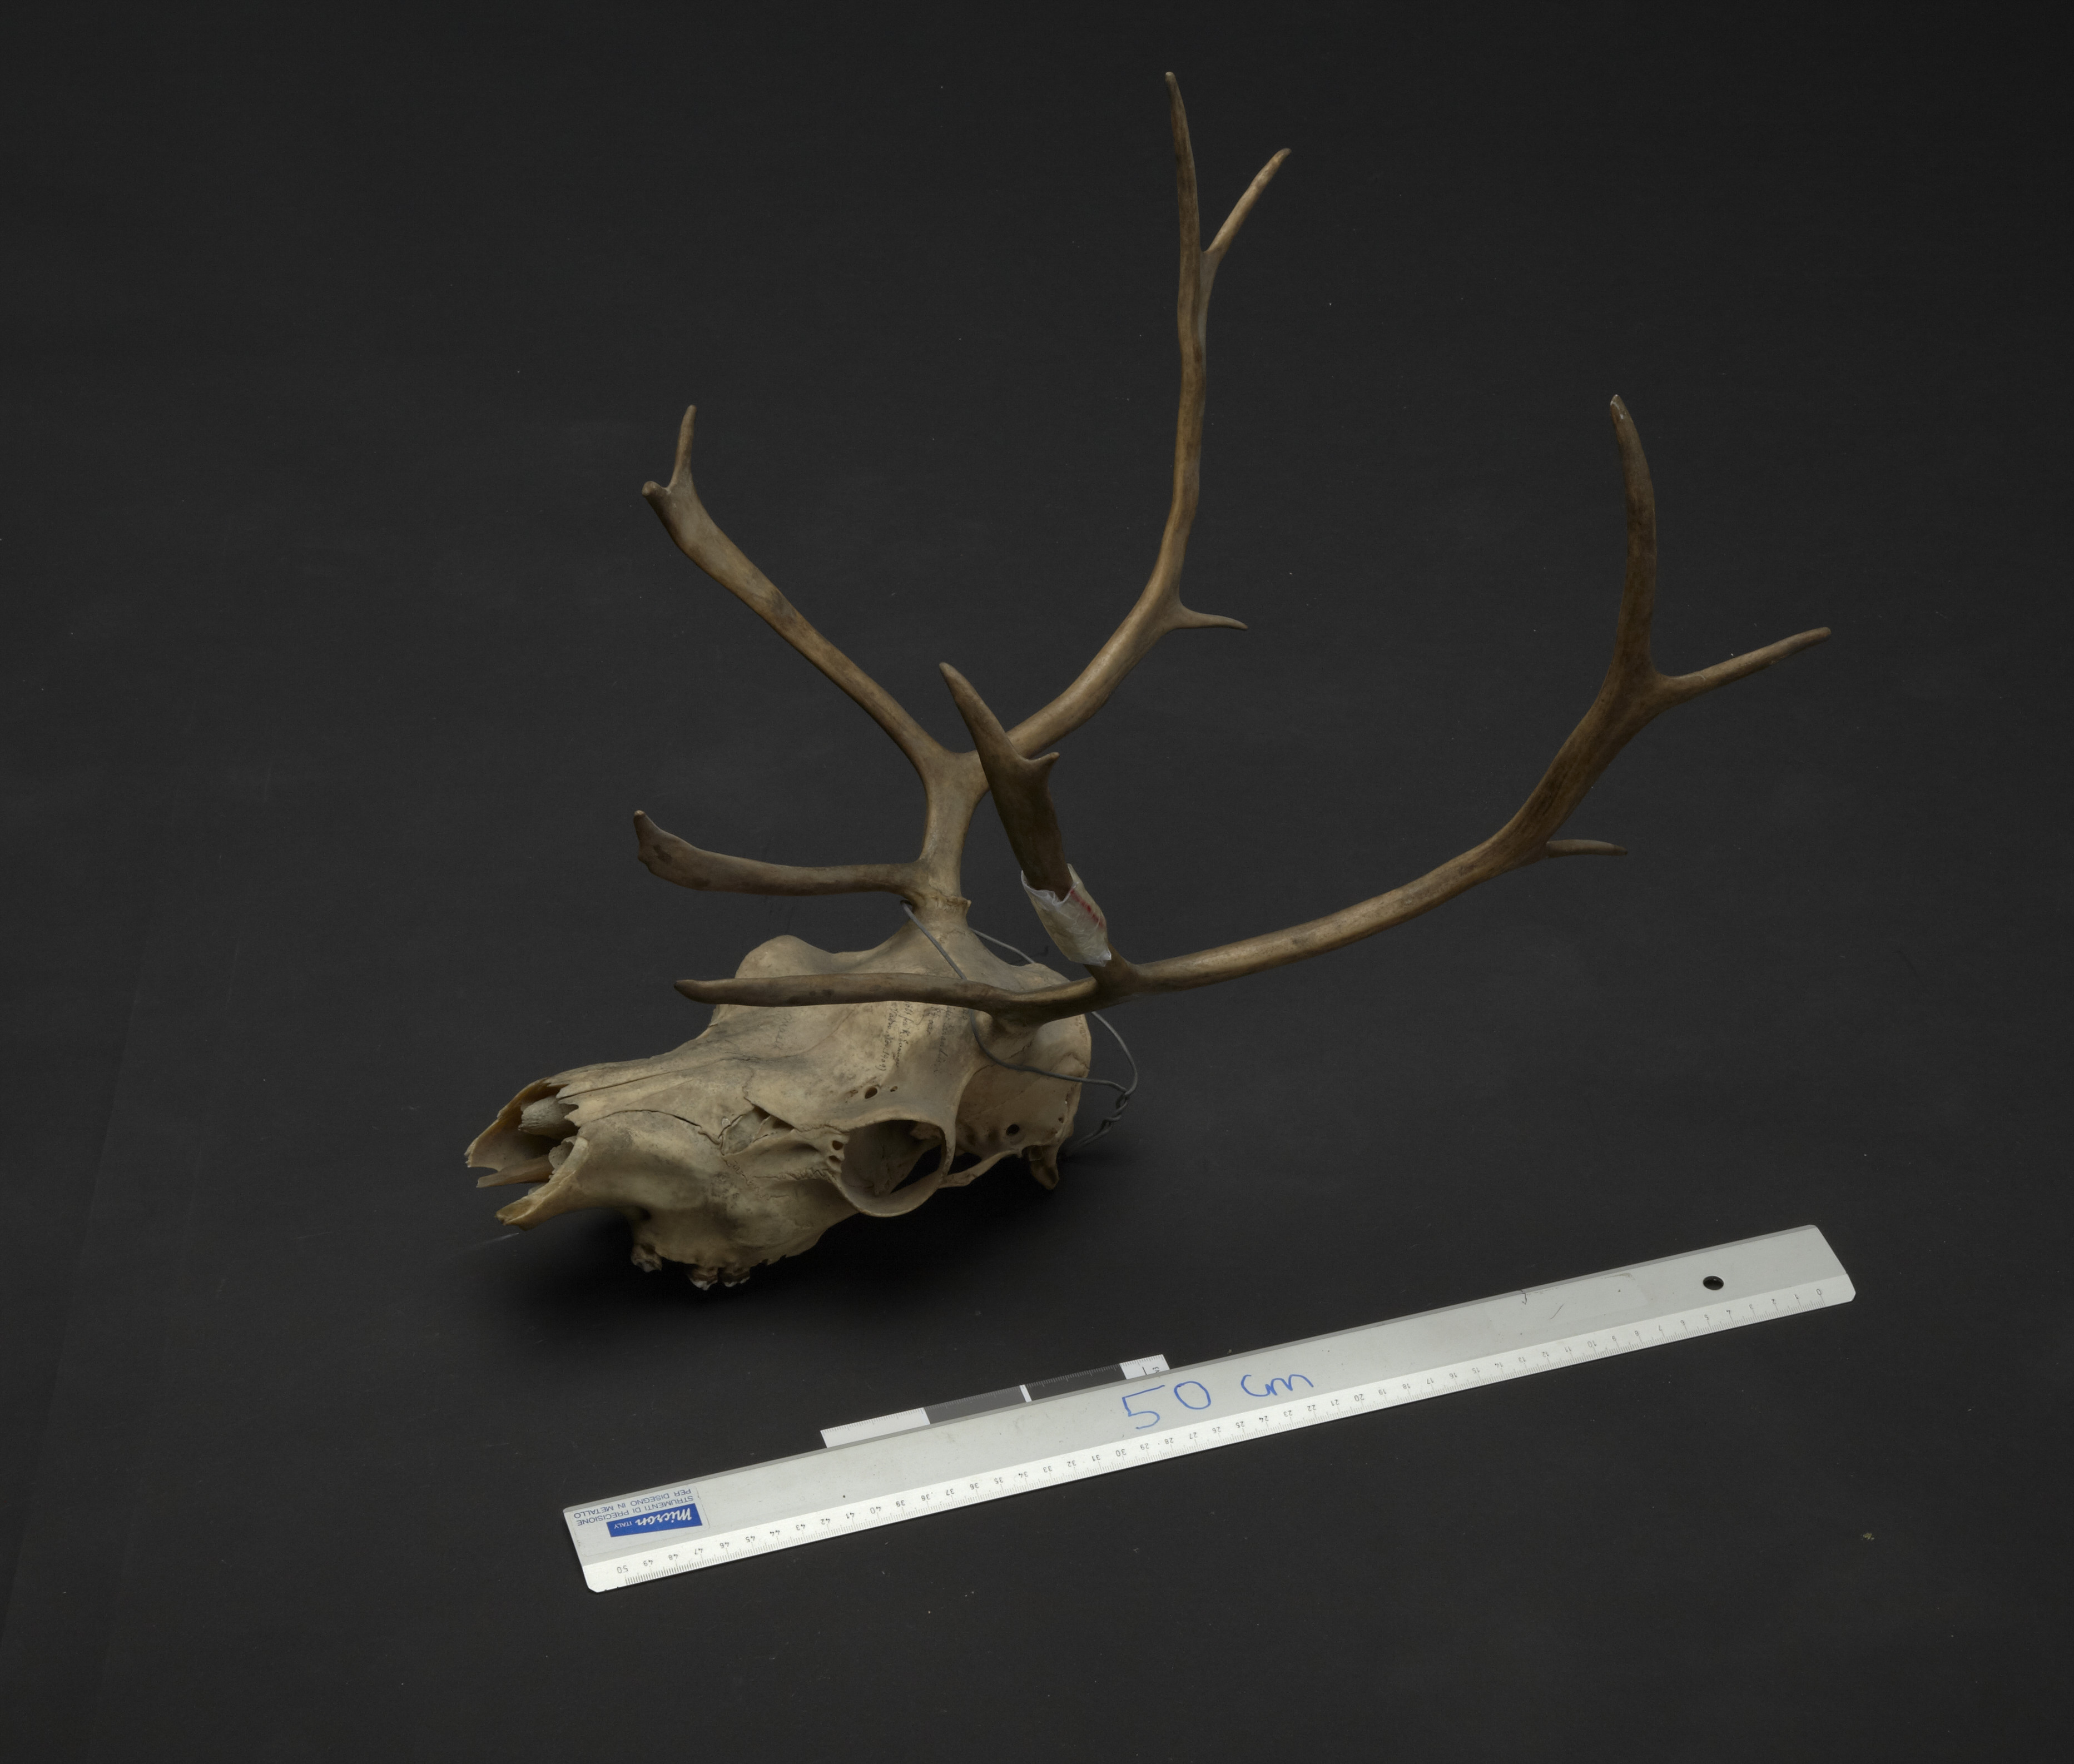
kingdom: Animalia
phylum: Chordata
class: Mammalia
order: Artiodactyla
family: Cervidae
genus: Rangifer
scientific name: Rangifer tarandus
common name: Reindeer
